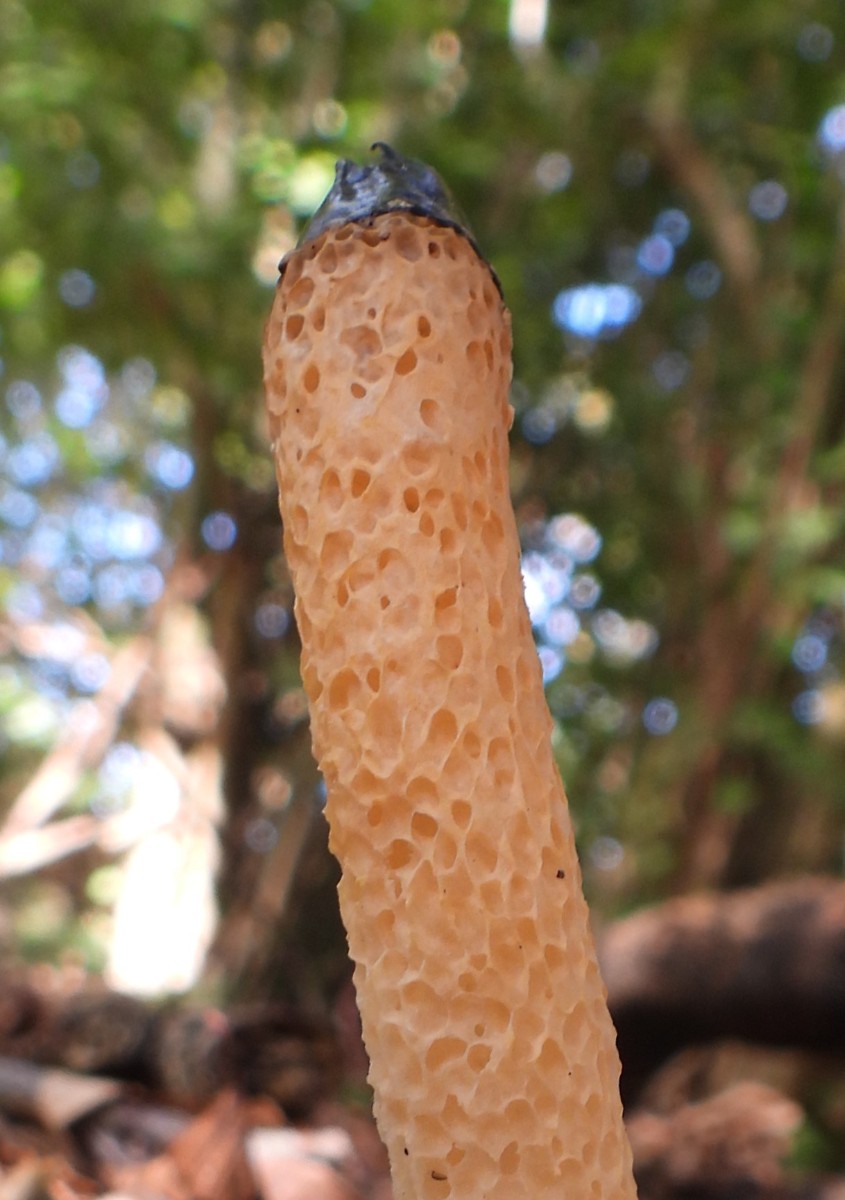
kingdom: Fungi
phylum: Basidiomycota
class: Agaricomycetes
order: Phallales
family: Phallaceae
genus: Mutinus
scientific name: Mutinus caninus
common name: hunde-stinksvamp
